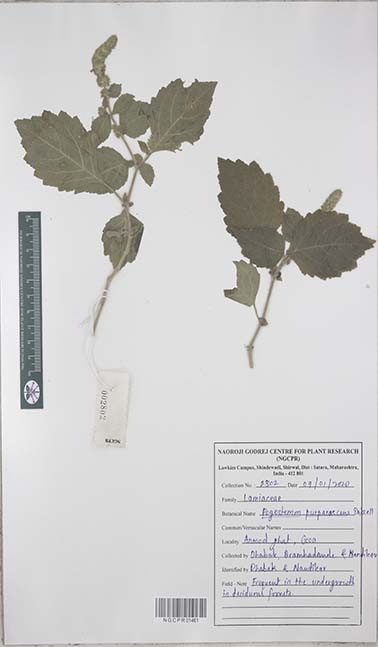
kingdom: Plantae
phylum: Tracheophyta
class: Magnoliopsida
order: Lamiales
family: Lamiaceae
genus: Pogostemon
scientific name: Pogostemon purpurascens
